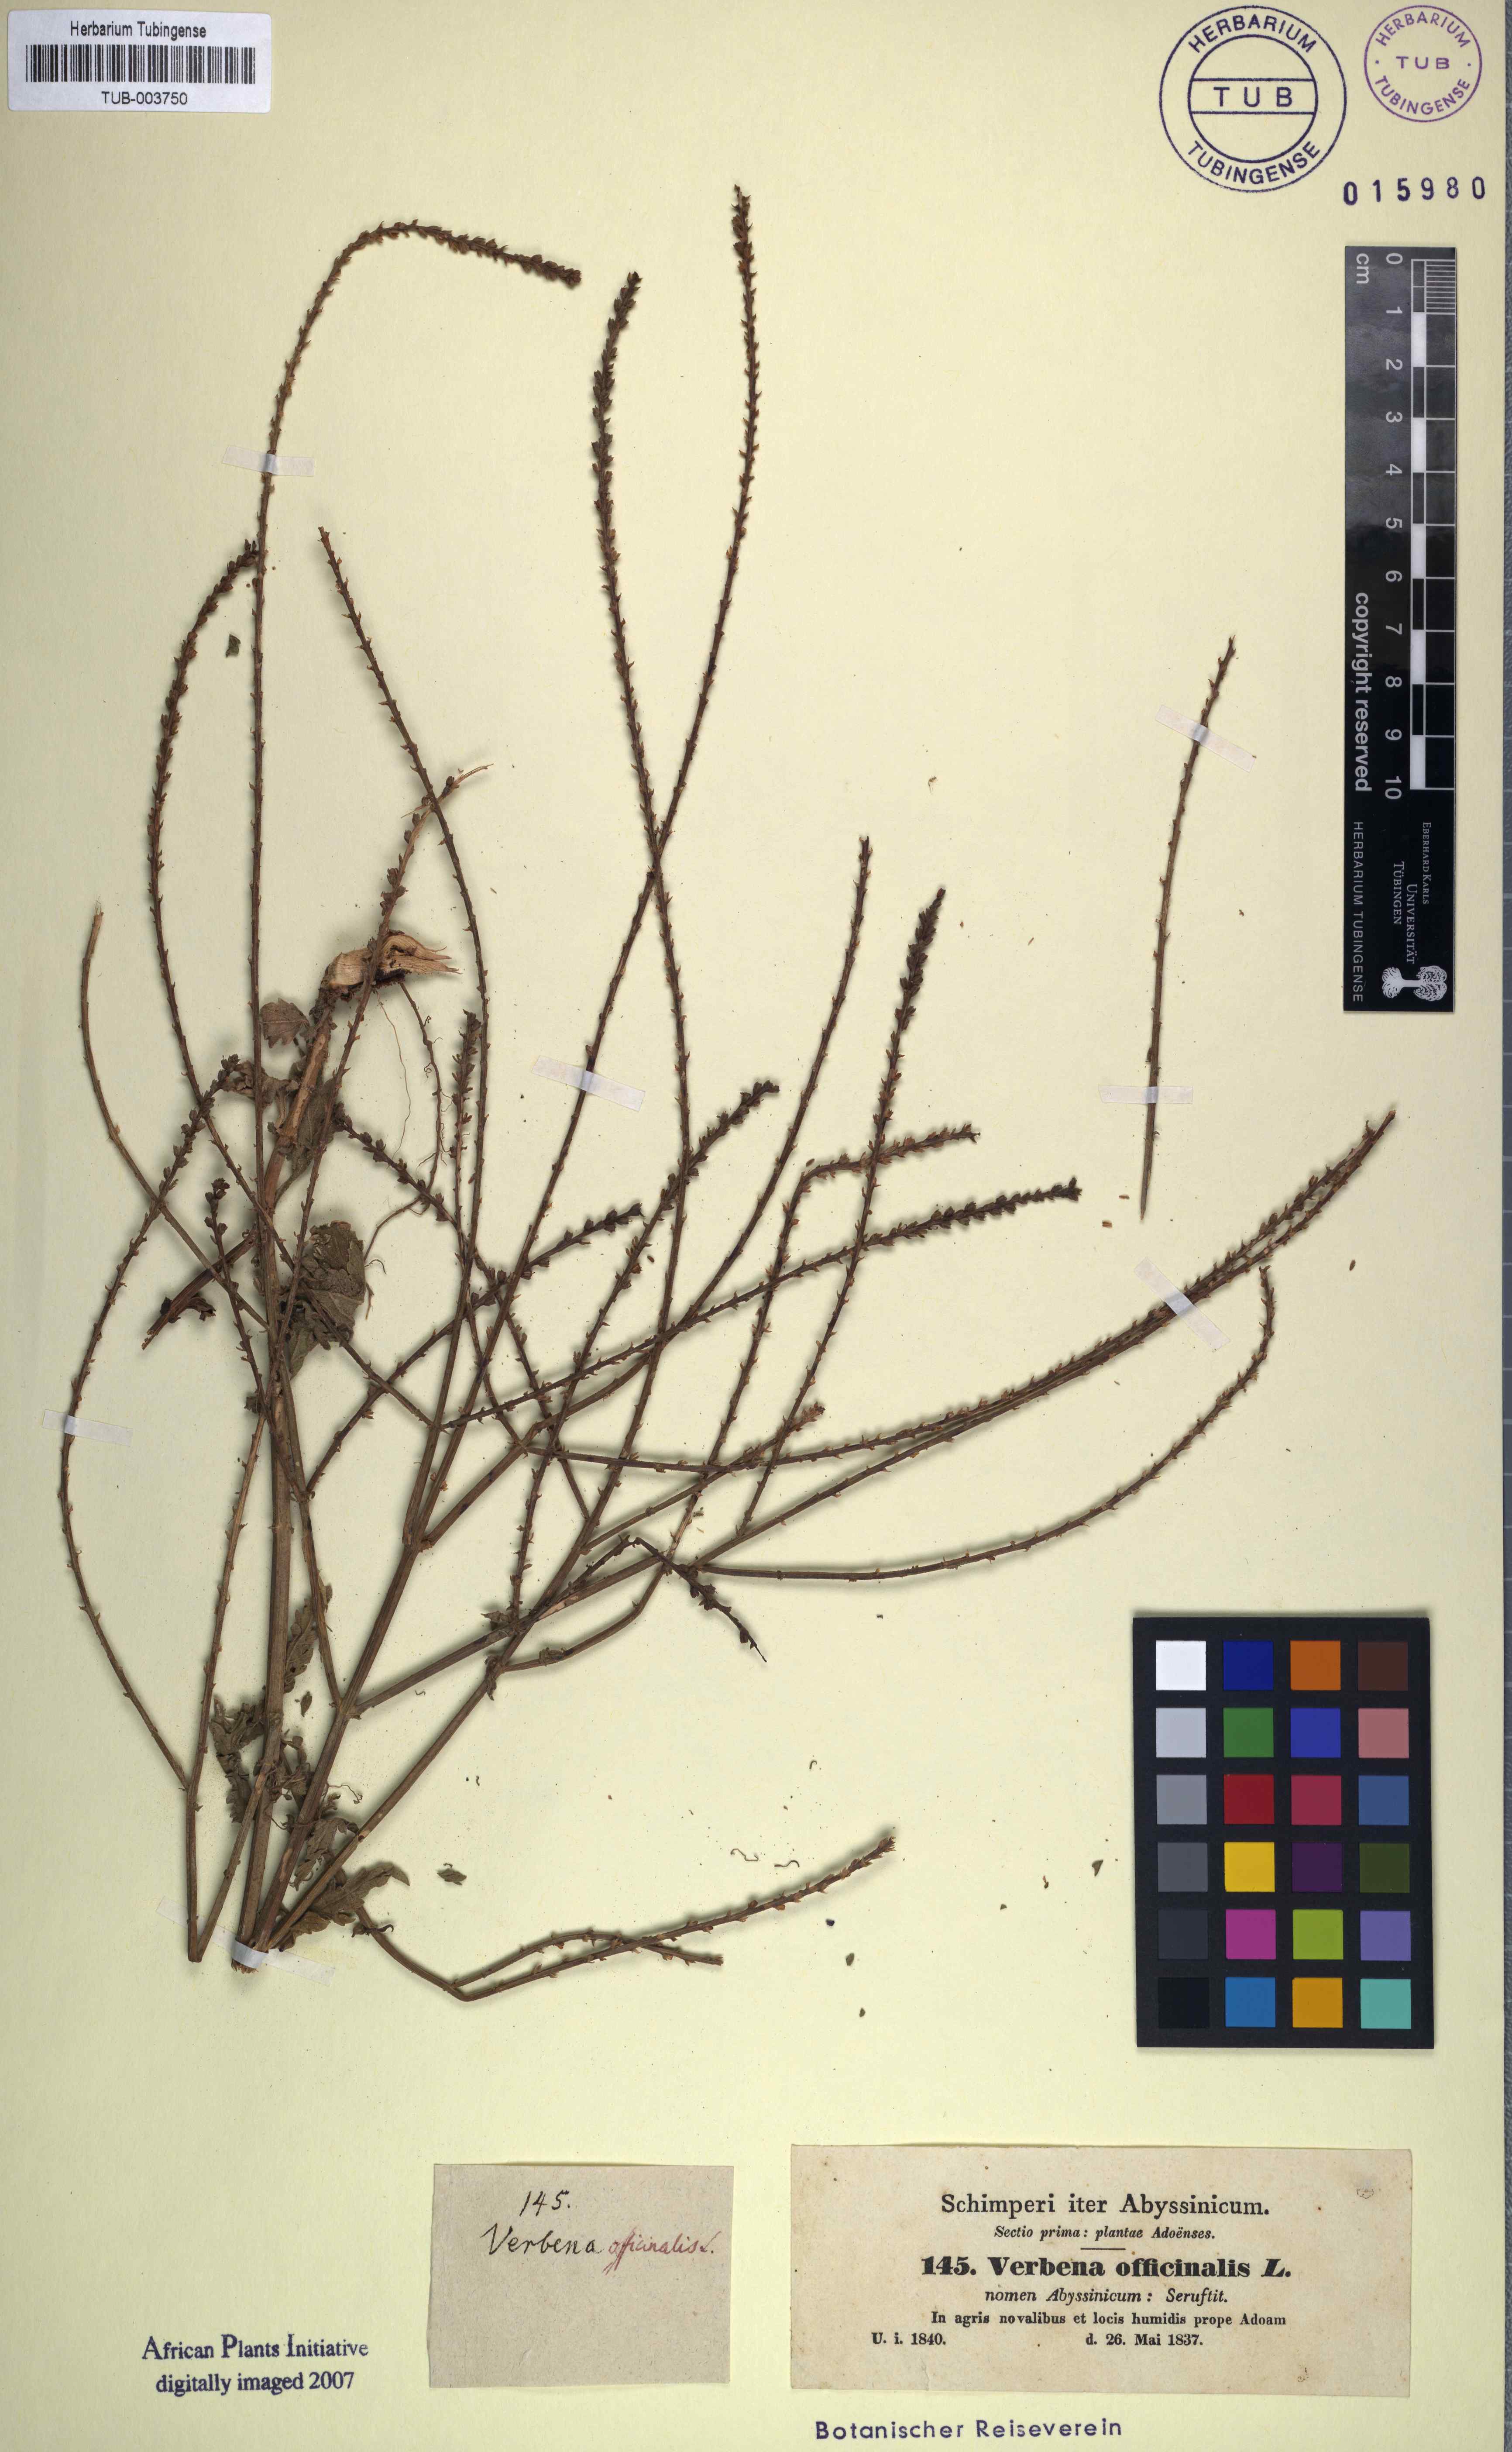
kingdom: Plantae
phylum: Tracheophyta
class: Magnoliopsida
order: Lamiales
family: Verbenaceae
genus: Verbena
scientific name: Verbena officinalis
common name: Vervain
